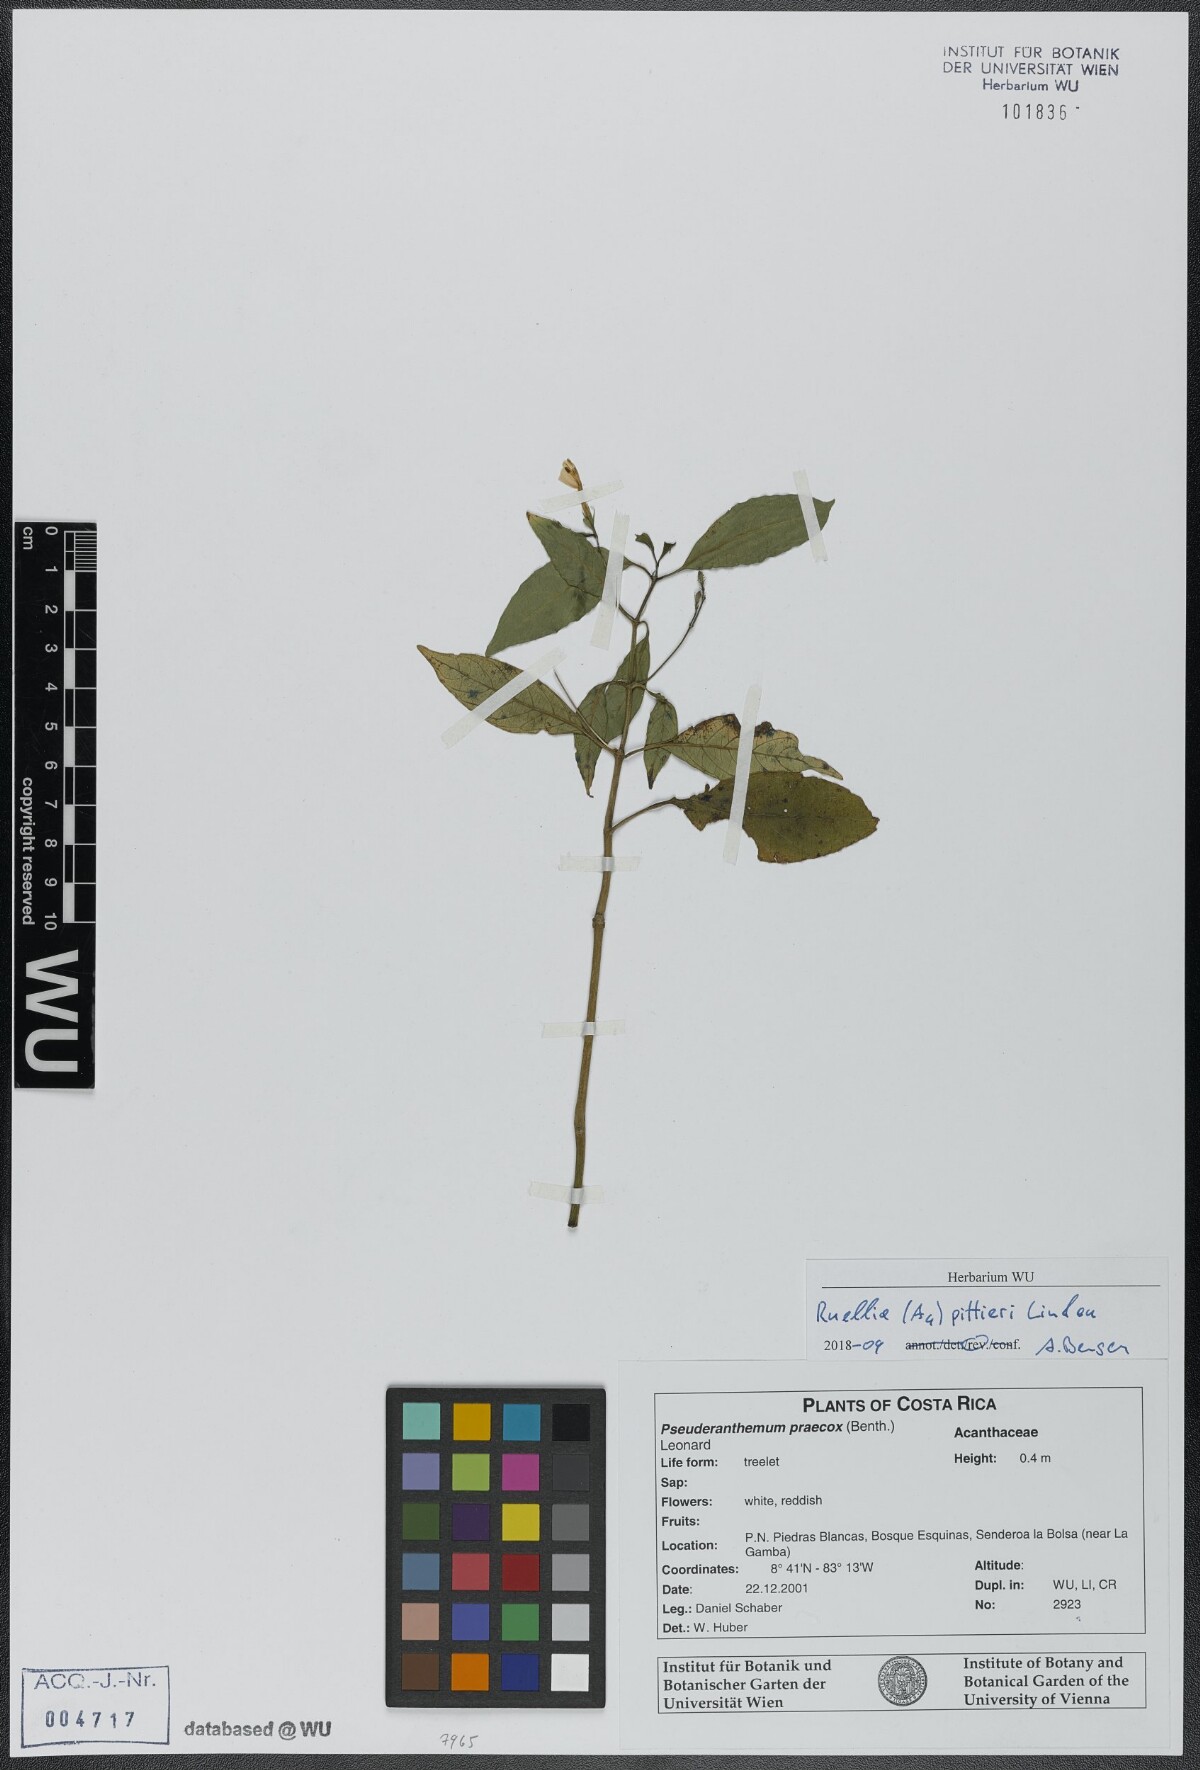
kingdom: Plantae
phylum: Tracheophyta
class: Magnoliopsida
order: Lamiales
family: Acanthaceae
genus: Ruellia
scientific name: Ruellia pittieri
